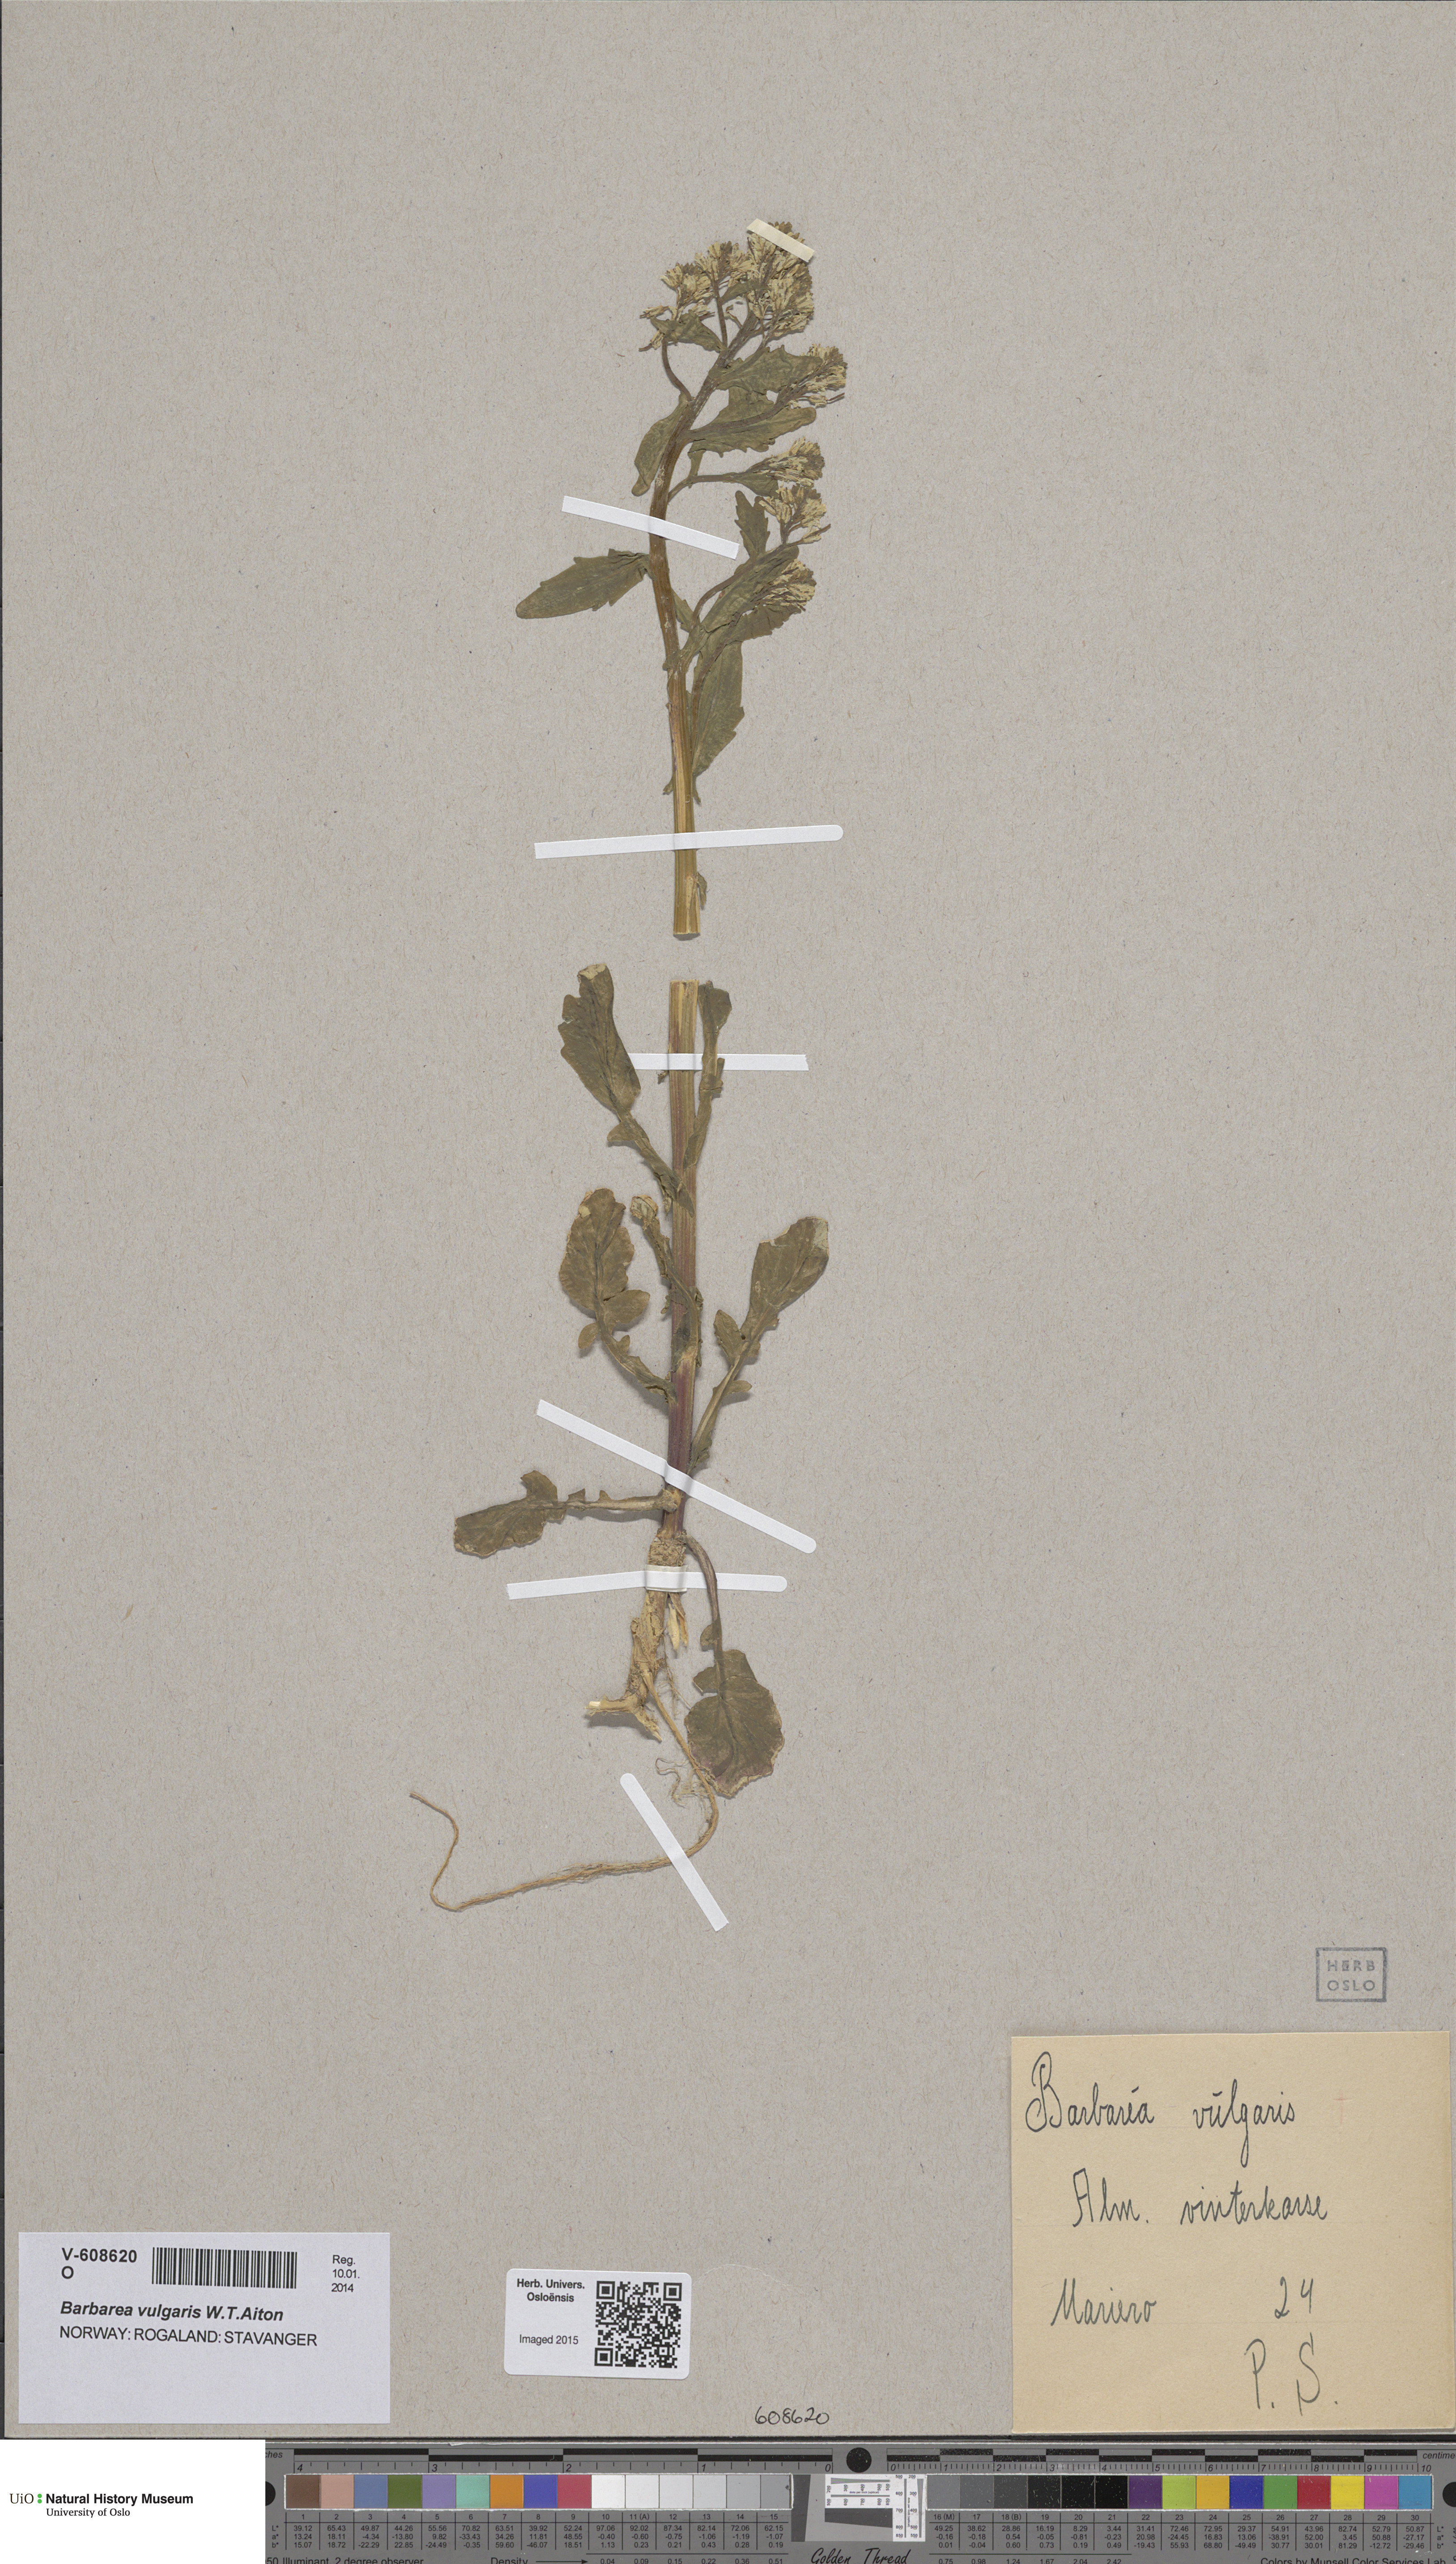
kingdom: Plantae
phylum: Tracheophyta
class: Magnoliopsida
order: Brassicales
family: Brassicaceae
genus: Barbarea
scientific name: Barbarea vulgaris
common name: Cressy-greens
